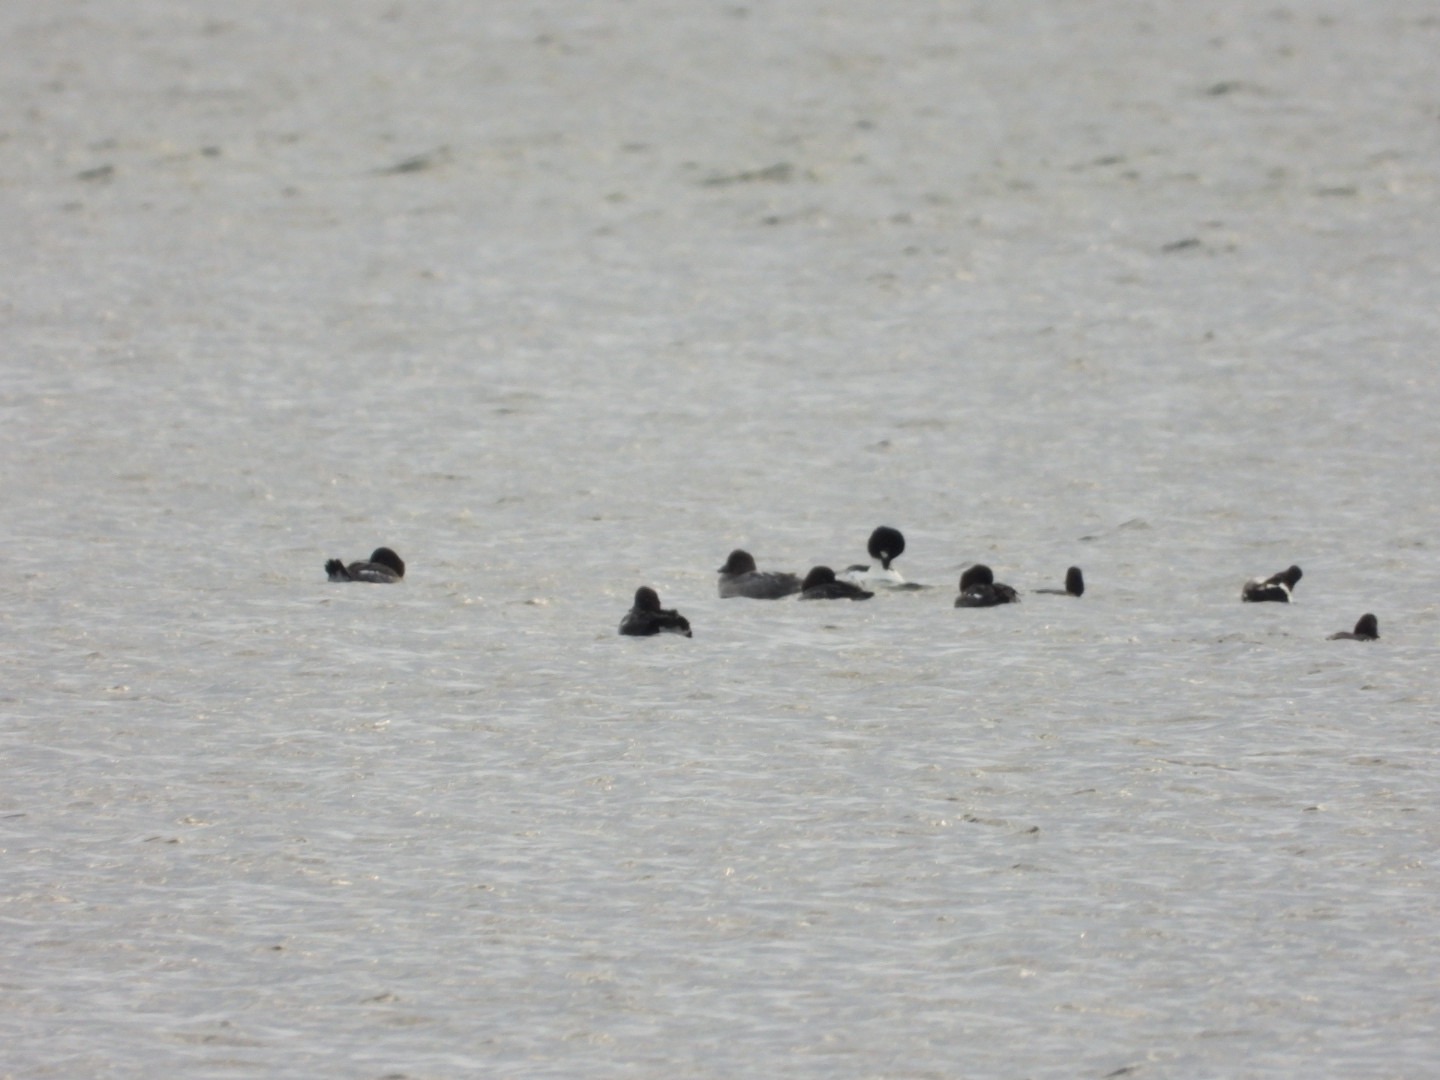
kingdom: Animalia
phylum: Chordata
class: Aves
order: Anseriformes
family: Anatidae
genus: Bucephala
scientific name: Bucephala clangula
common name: Hvinand
